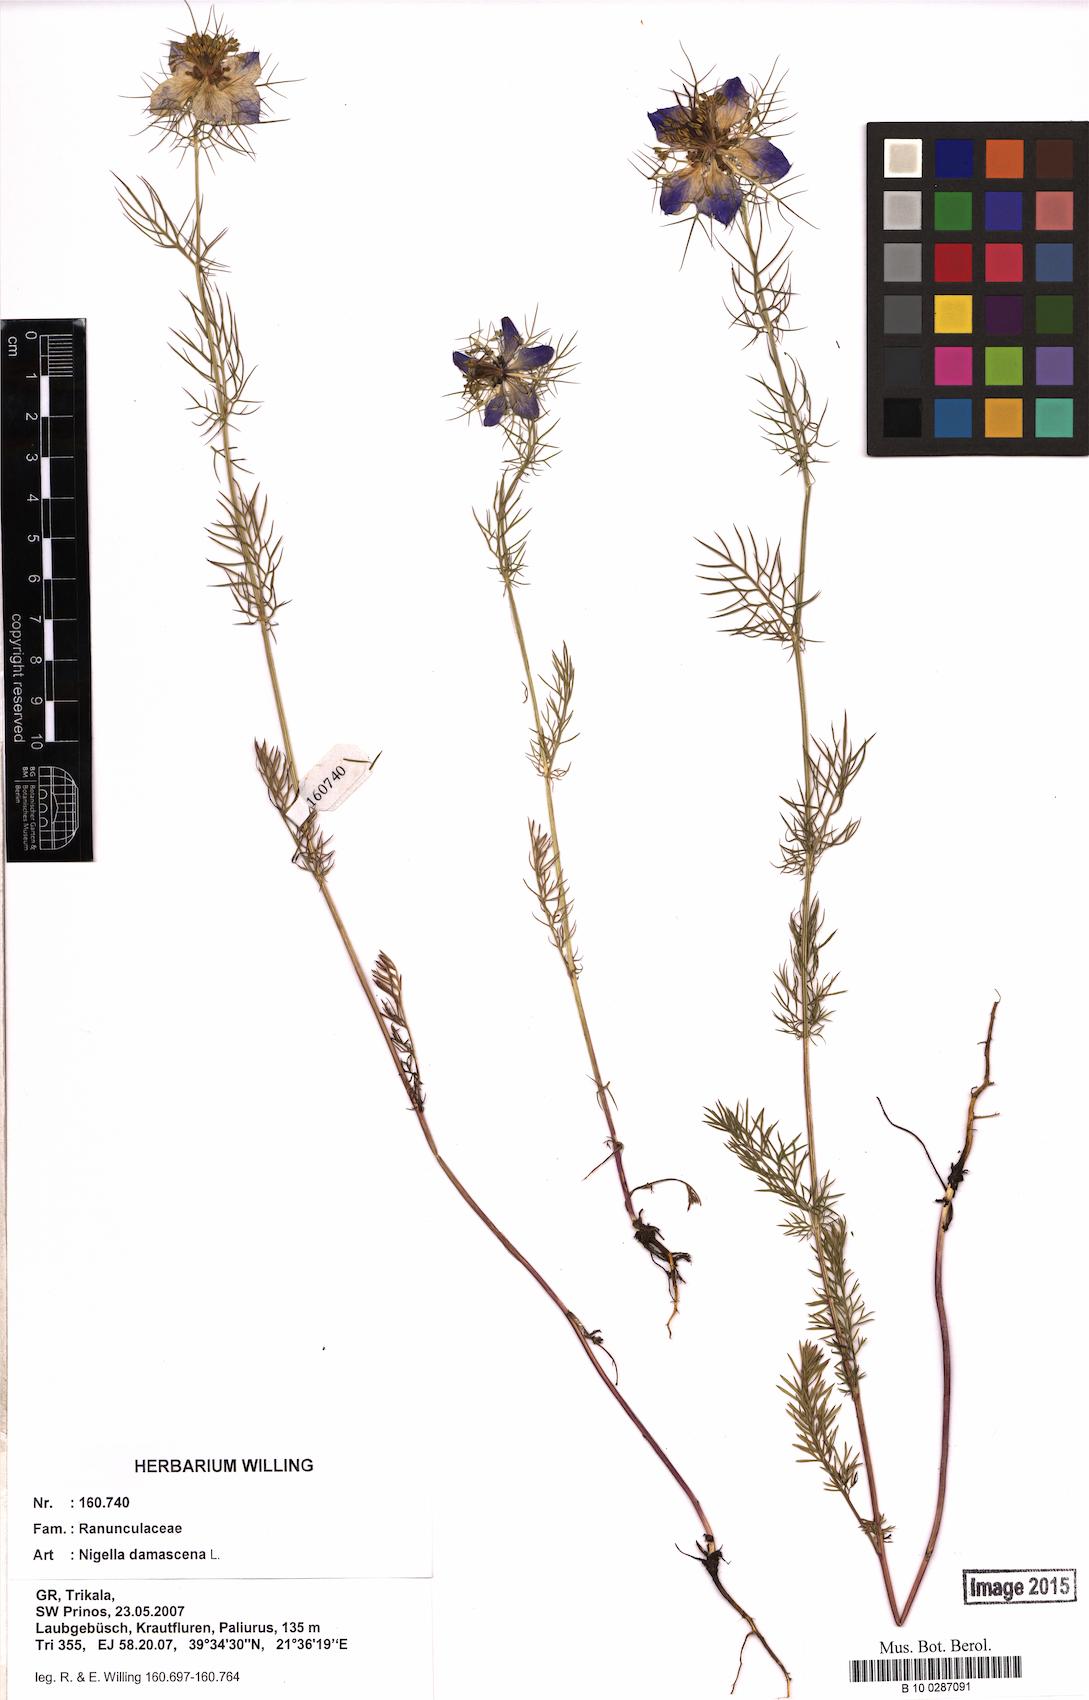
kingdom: Plantae
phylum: Tracheophyta
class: Magnoliopsida
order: Ranunculales
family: Ranunculaceae
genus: Nigella
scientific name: Nigella damascena
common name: Love-in-a-mist
